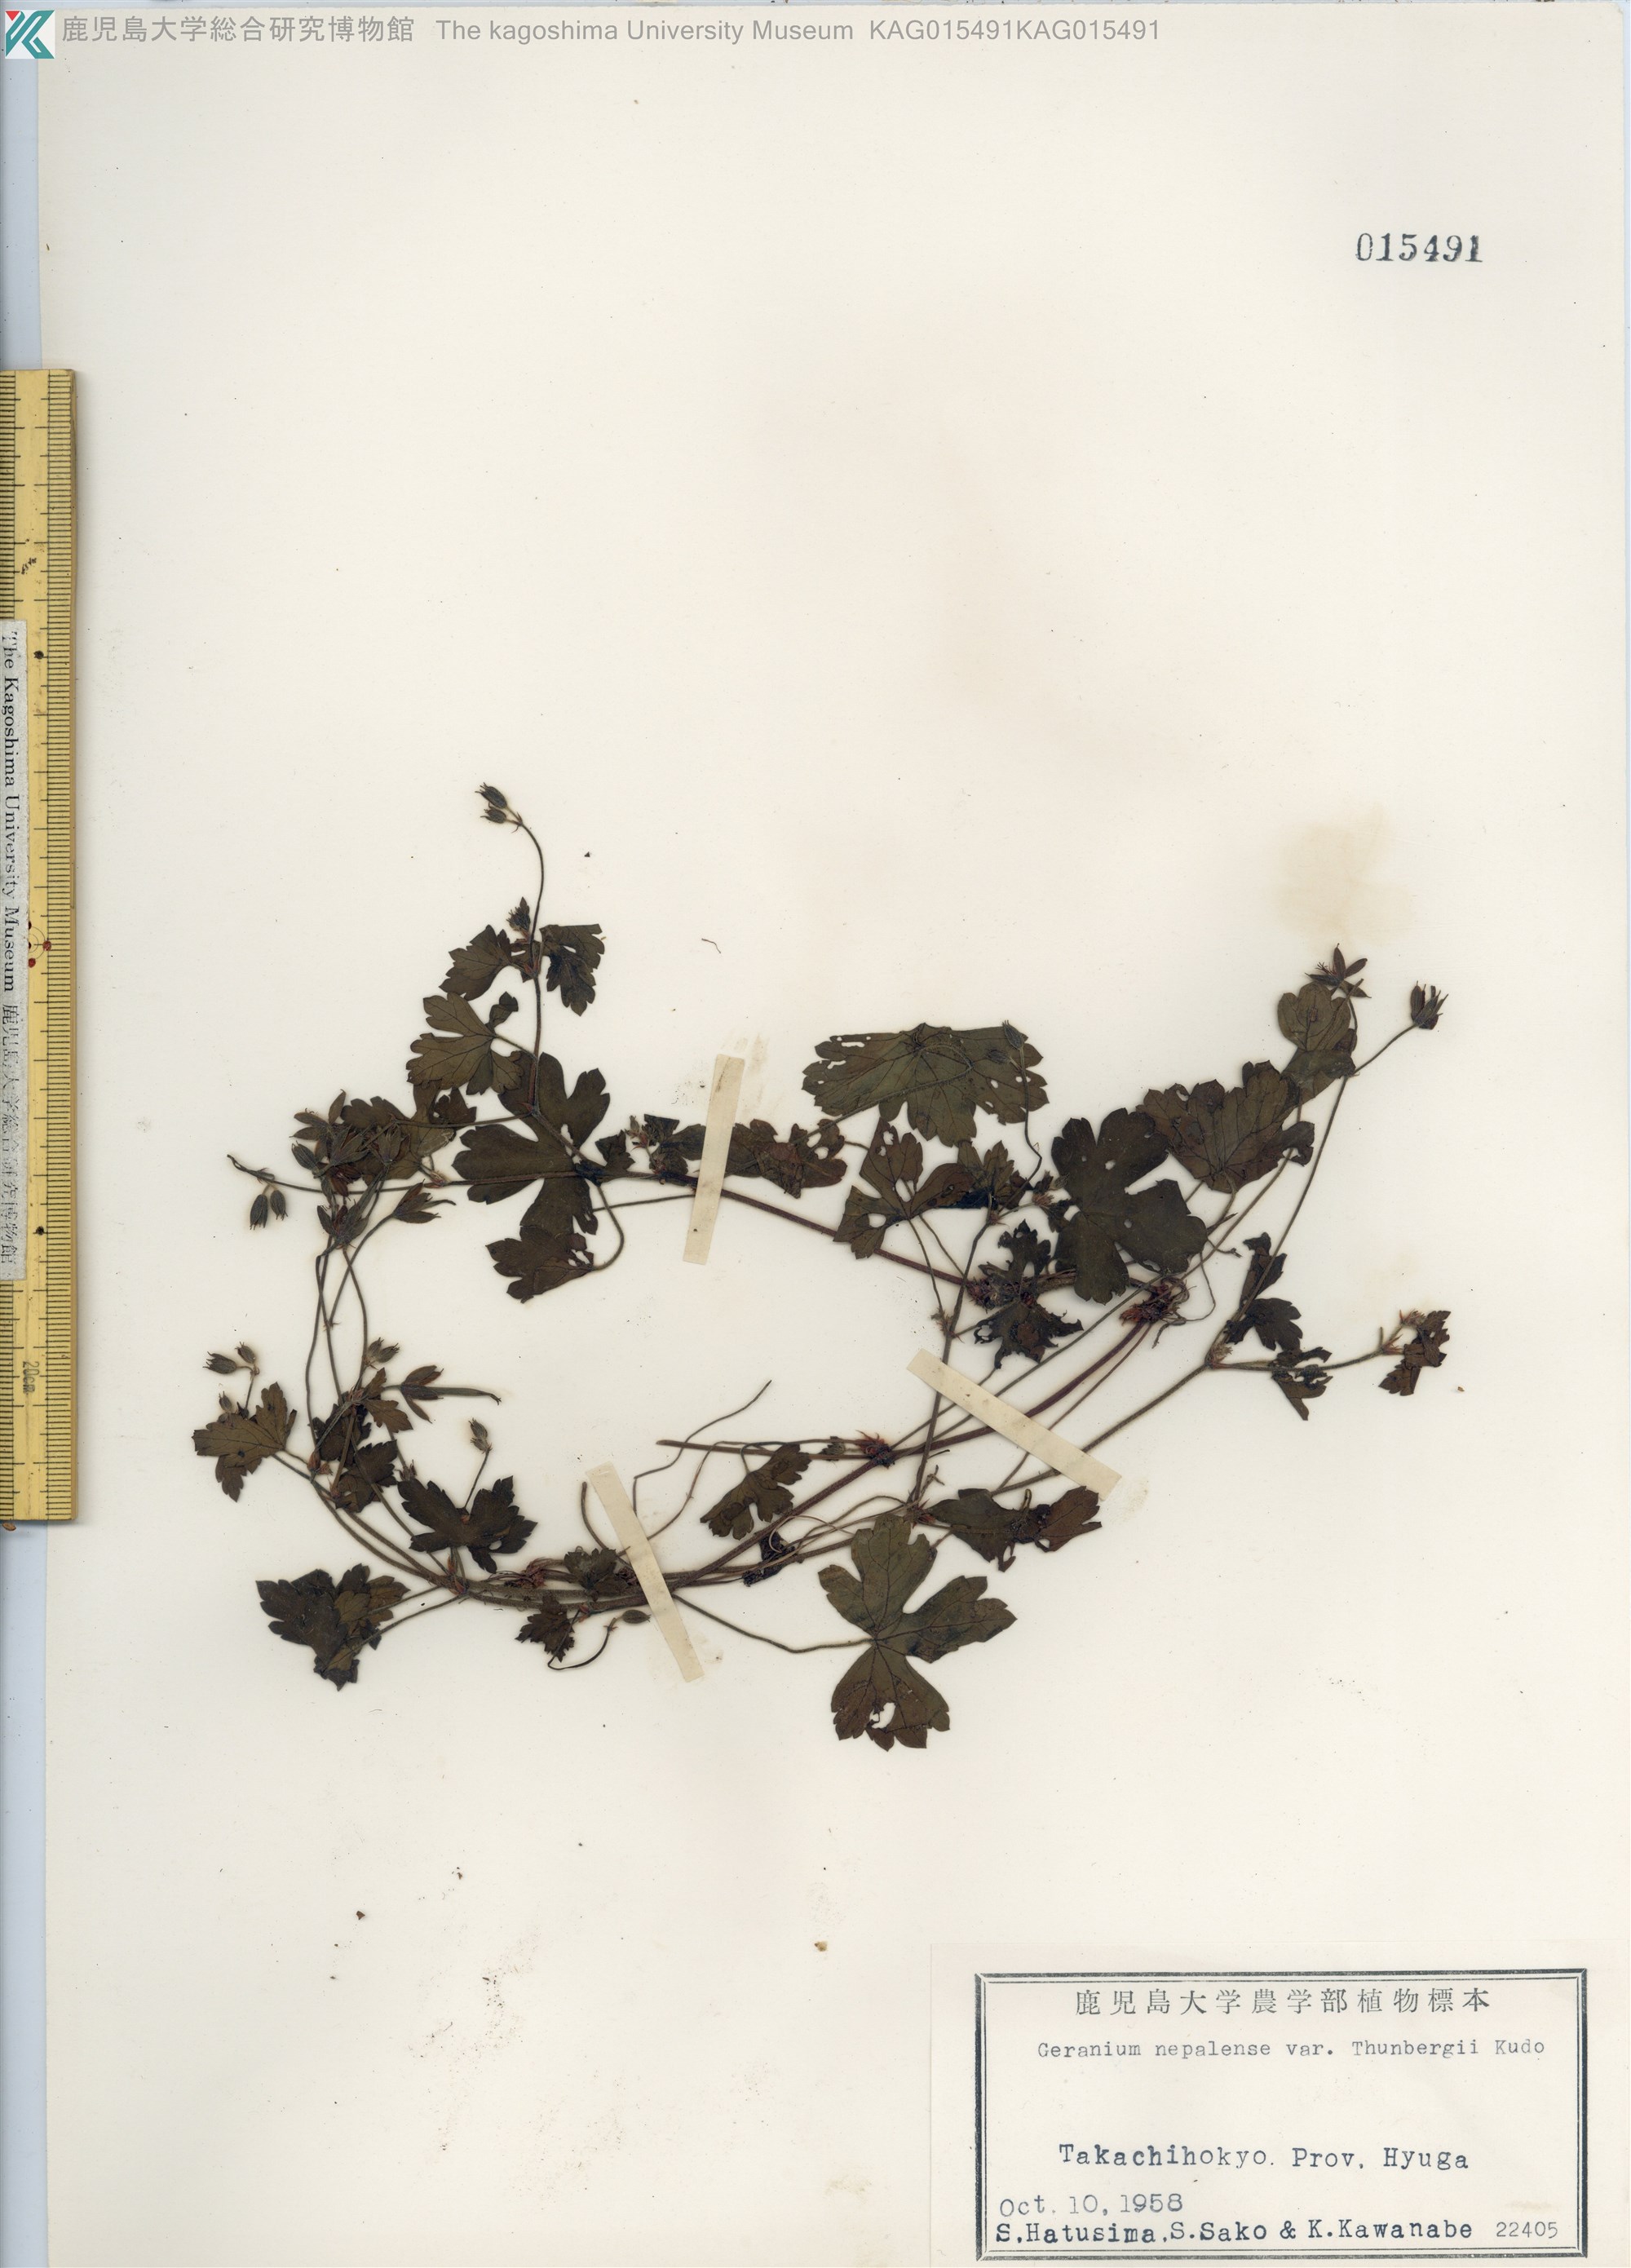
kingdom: Plantae
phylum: Tracheophyta
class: Magnoliopsida
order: Geraniales
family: Geraniaceae
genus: Geranium
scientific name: Geranium thunbergii
